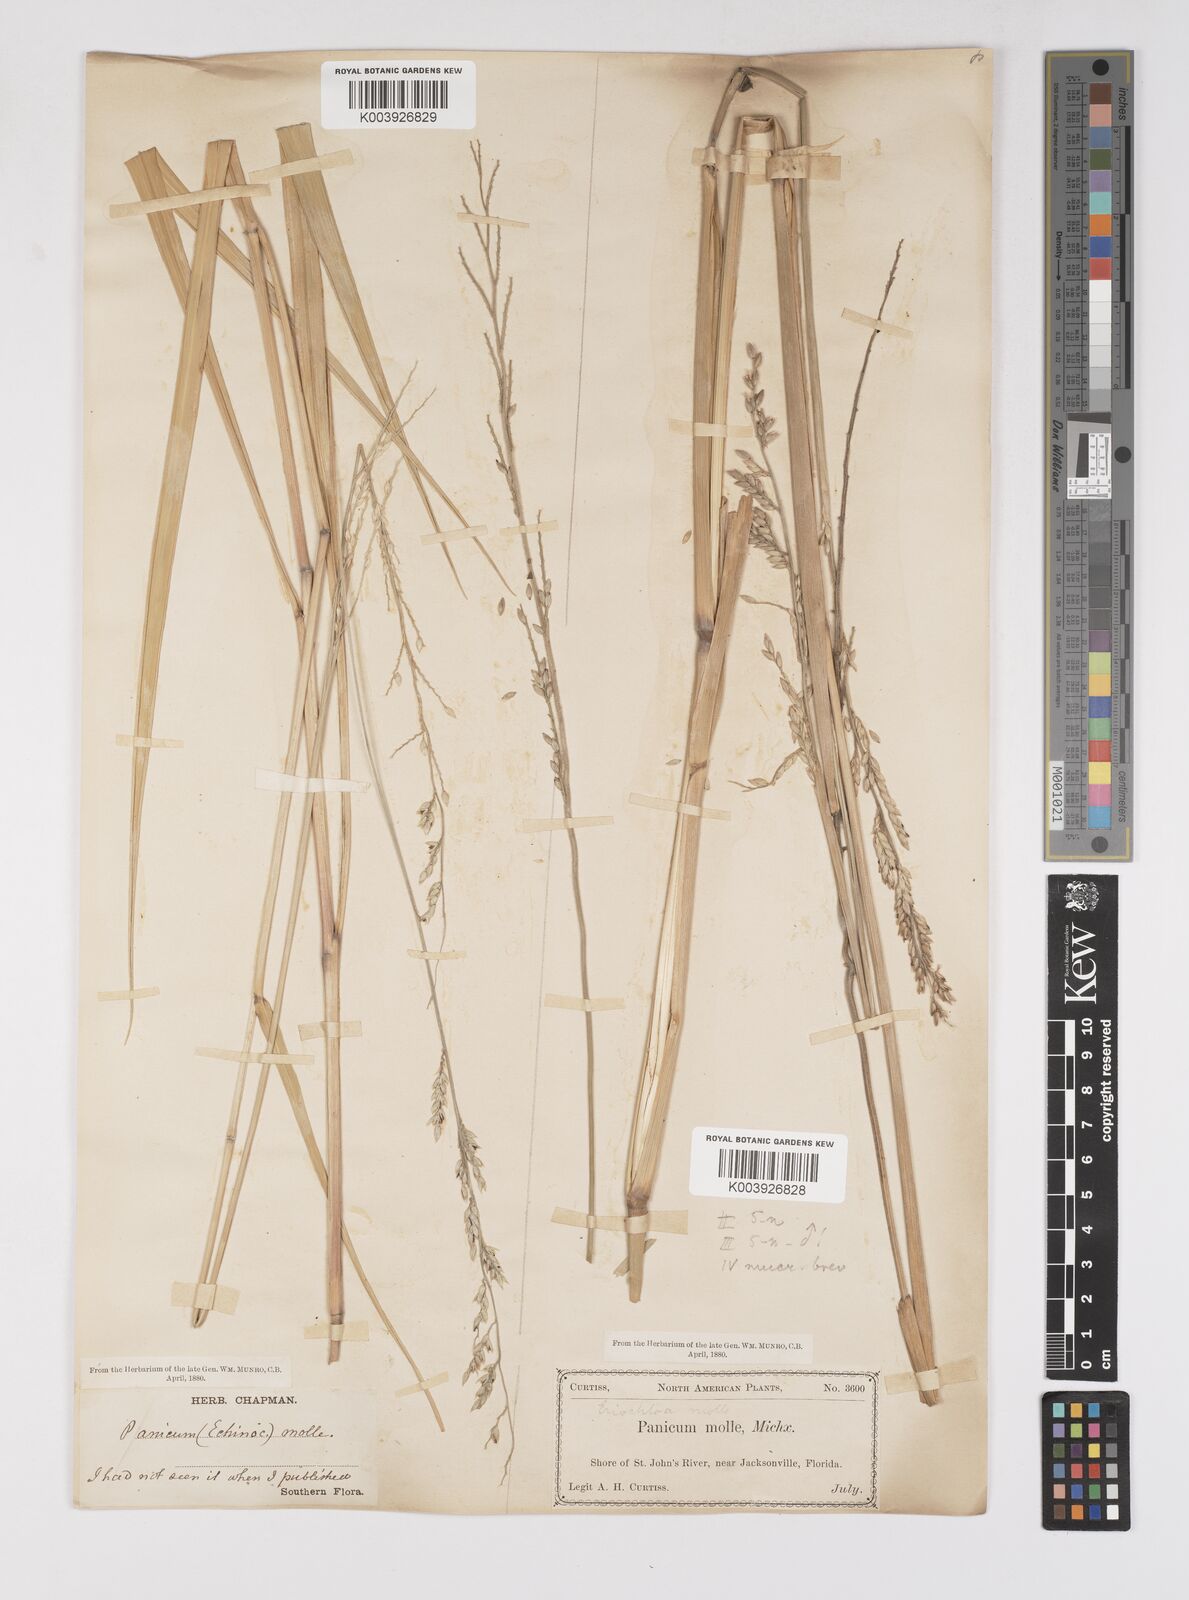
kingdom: Plantae
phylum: Tracheophyta
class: Liliopsida
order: Poales
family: Poaceae
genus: Eriochloa
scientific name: Eriochloa michauxii
